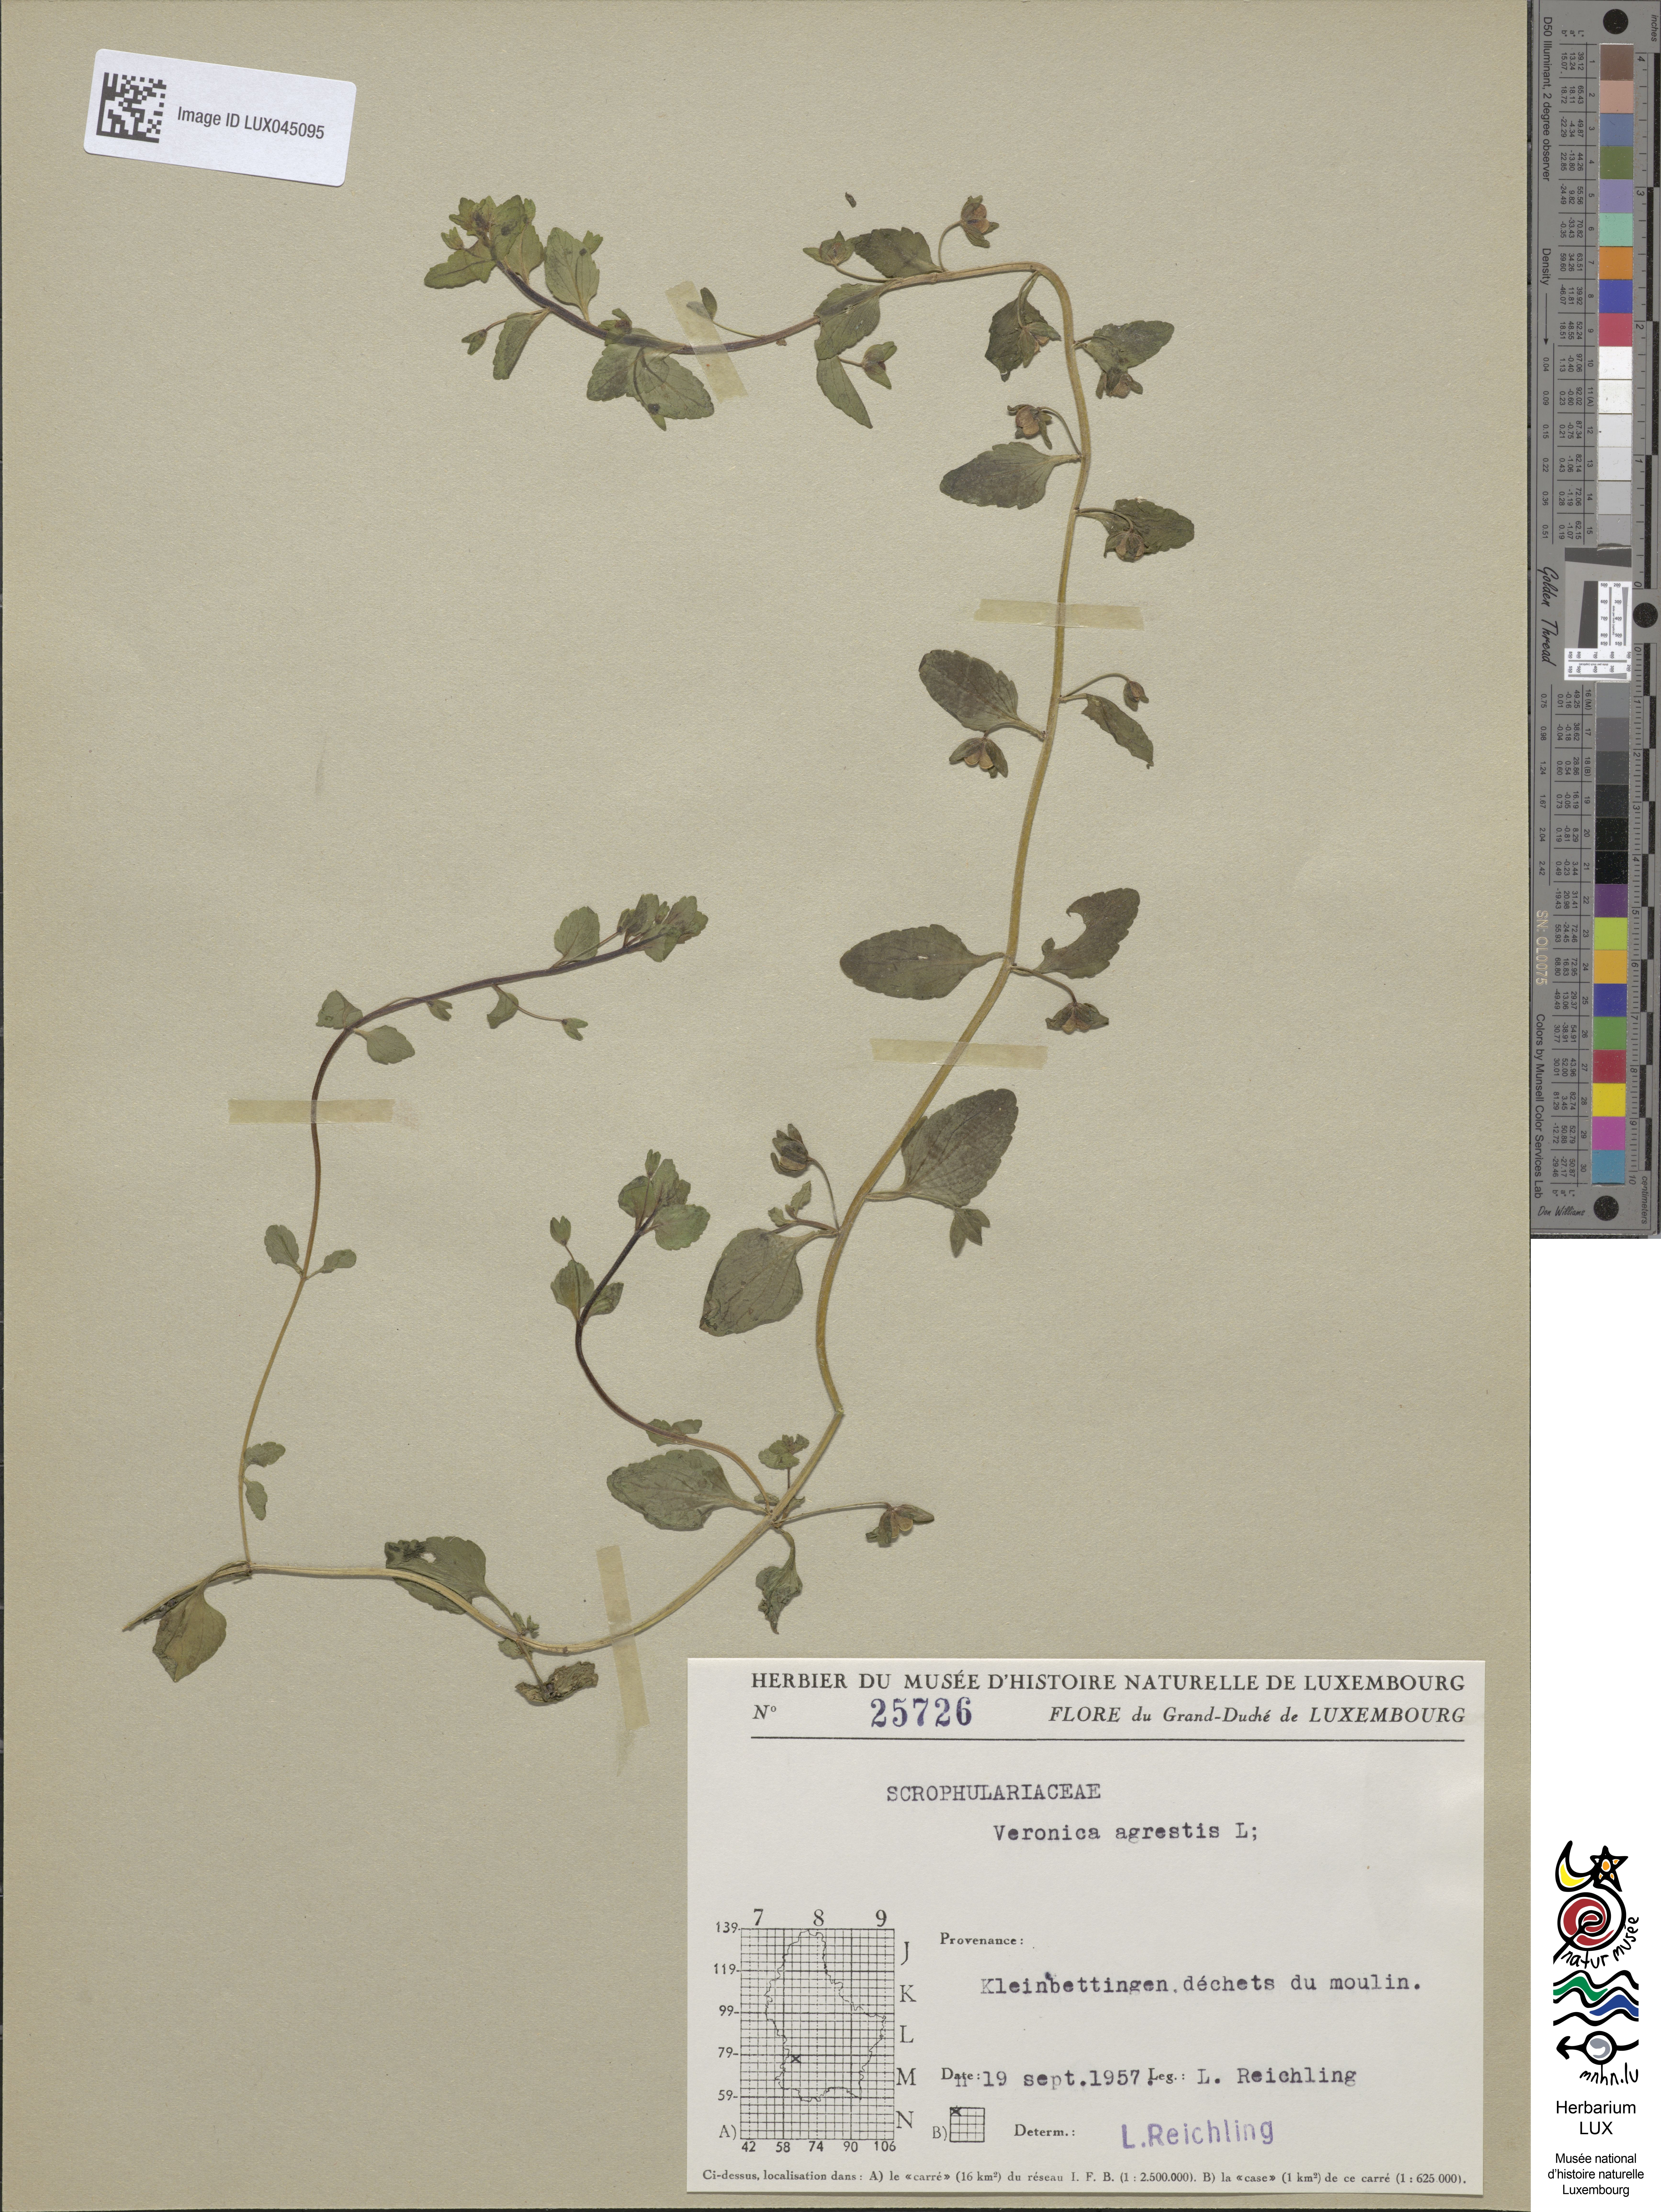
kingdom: Plantae
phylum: Tracheophyta
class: Magnoliopsida
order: Lamiales
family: Plantaginaceae
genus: Veronica
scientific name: Veronica agrestis
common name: Green field-speedwell
